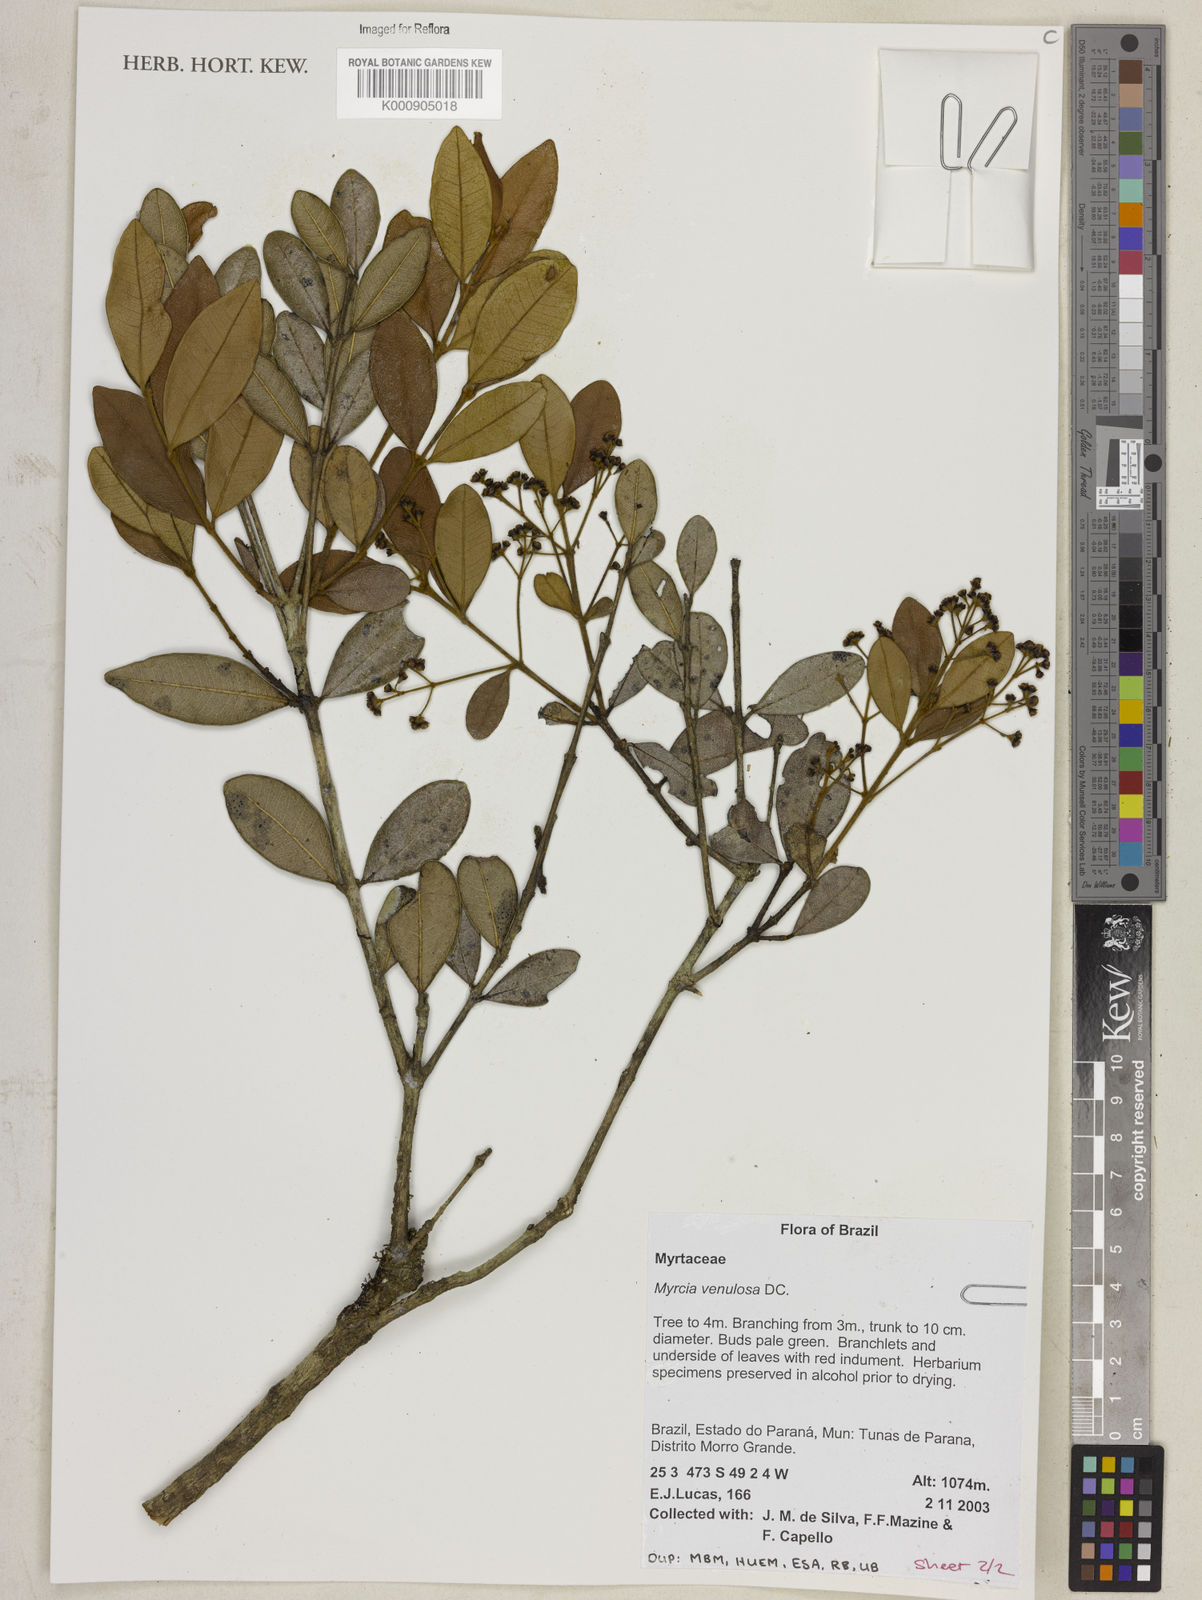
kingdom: Plantae
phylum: Tracheophyta
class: Magnoliopsida
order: Myrtales
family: Myrtaceae
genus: Myrcia
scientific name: Myrcia venulosa
